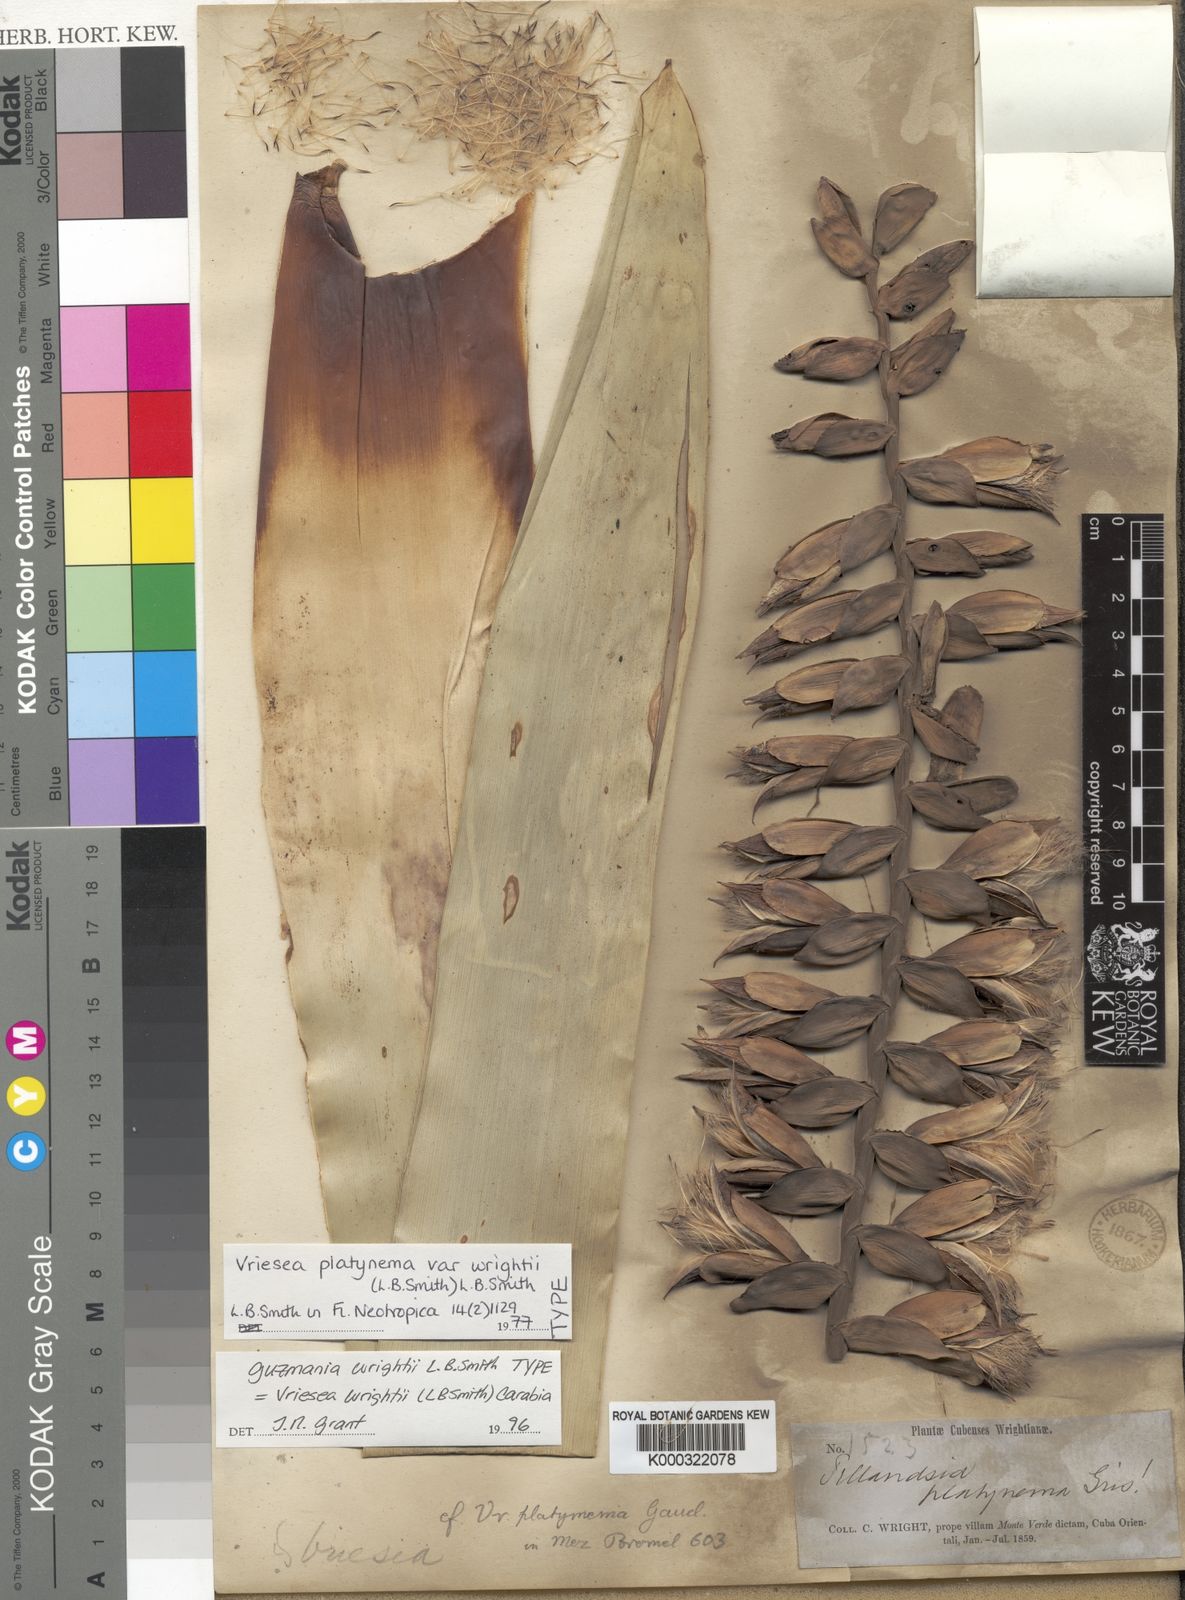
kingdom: Plantae
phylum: Tracheophyta
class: Liliopsida
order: Poales
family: Bromeliaceae
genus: Vriesea
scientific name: Vriesea platynema
